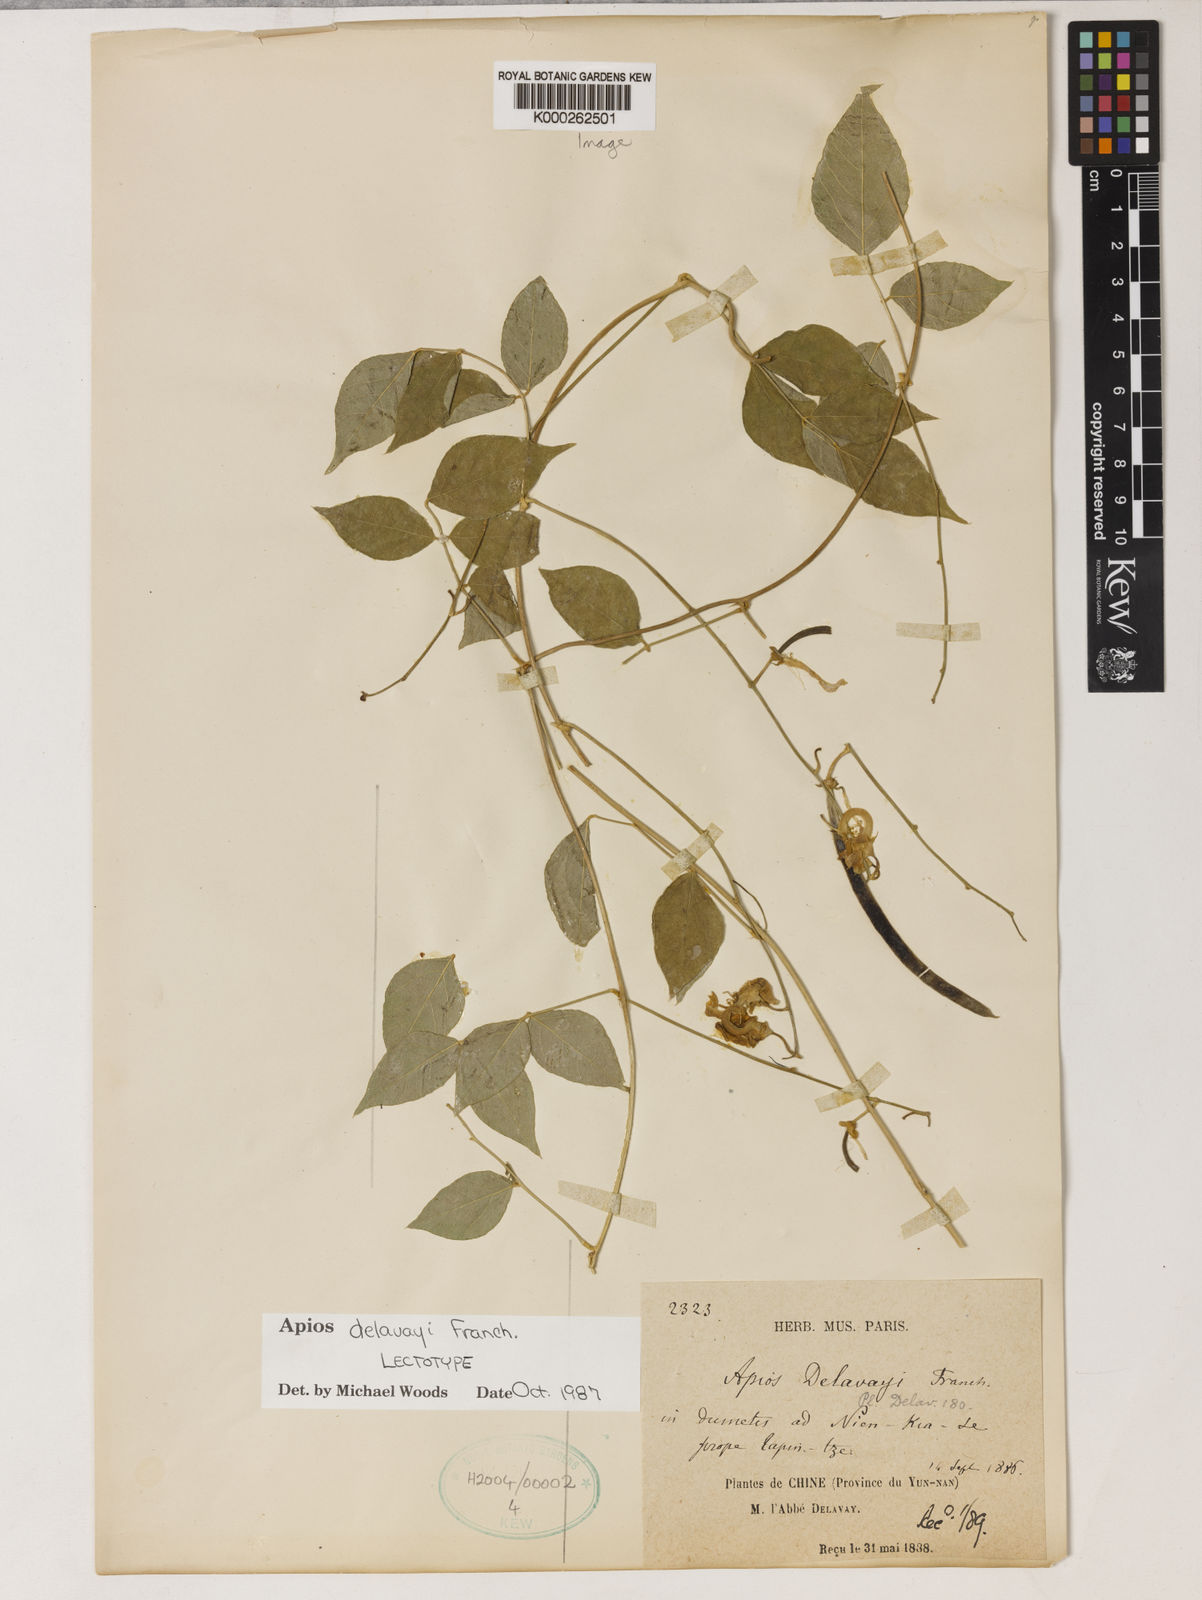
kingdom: Plantae
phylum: Tracheophyta
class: Magnoliopsida
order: Fabales
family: Fabaceae
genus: Apios
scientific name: Apios
